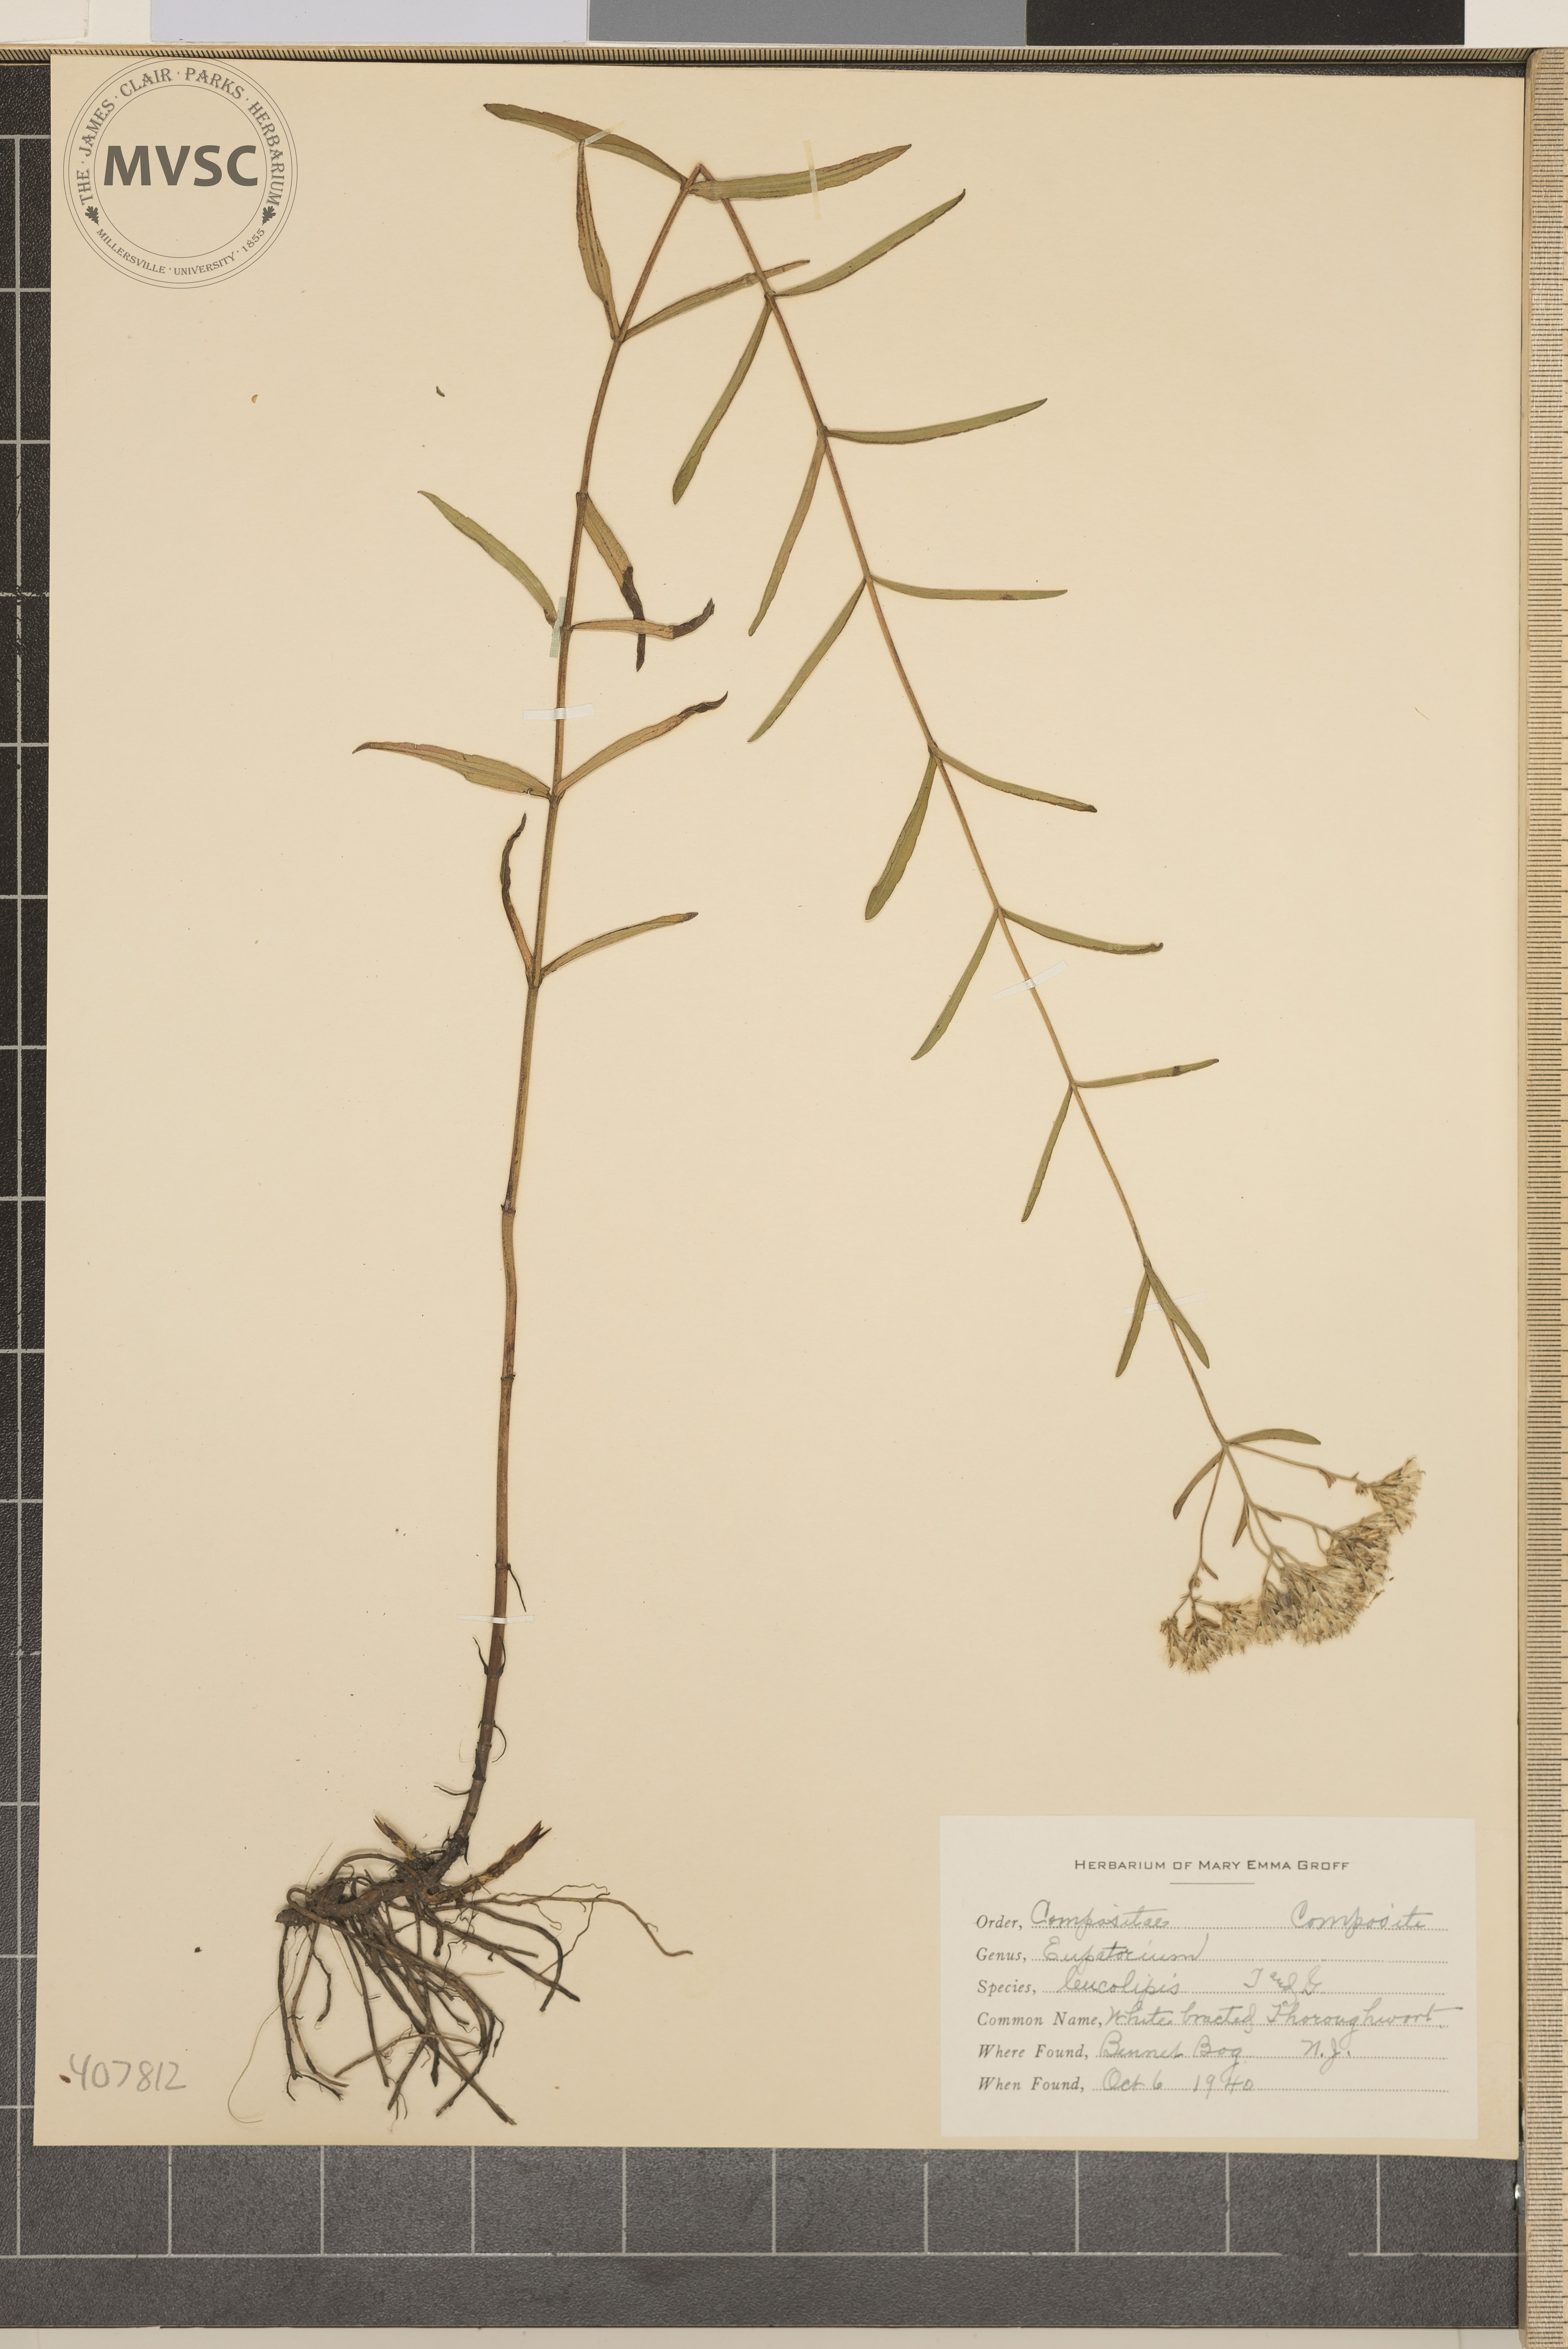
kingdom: Plantae
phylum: Tracheophyta
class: Magnoliopsida
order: Asterales
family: Asteraceae
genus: Eupatorium
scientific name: Eupatorium leucolepis
